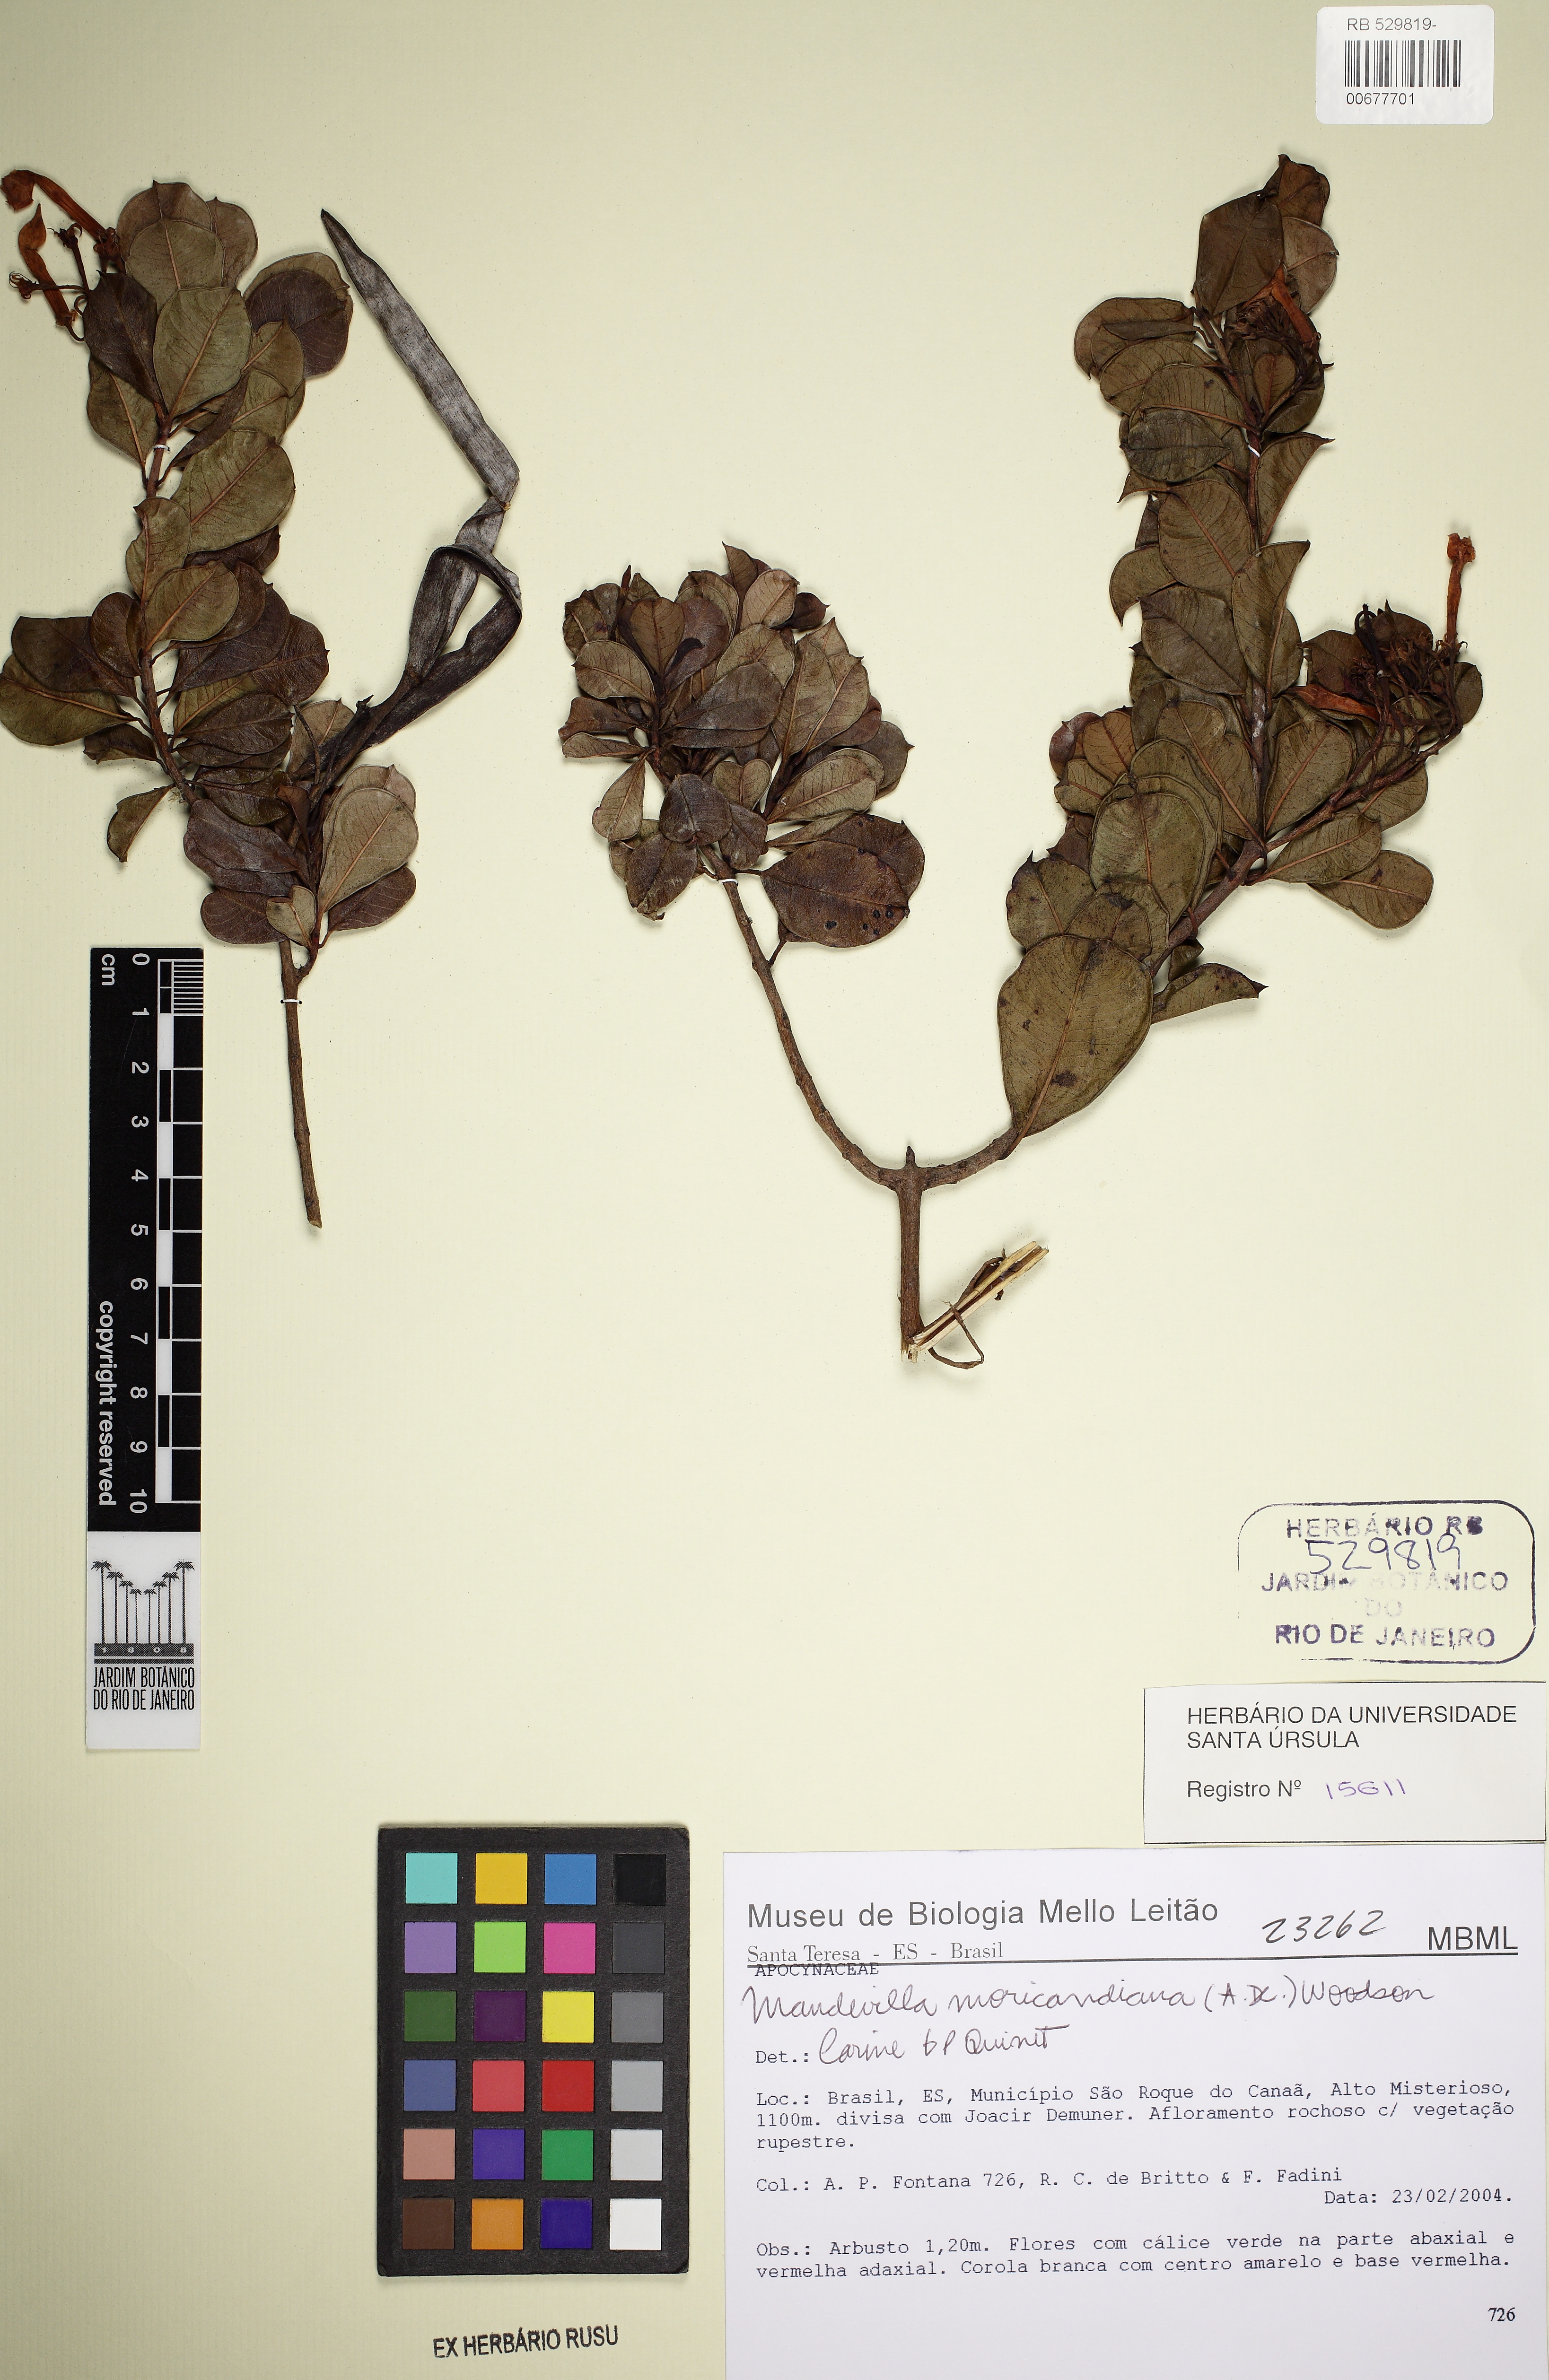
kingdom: Plantae
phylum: Tracheophyta
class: Magnoliopsida
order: Gentianales
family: Apocynaceae
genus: Mandevilla
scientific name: Mandevilla moricandiana
